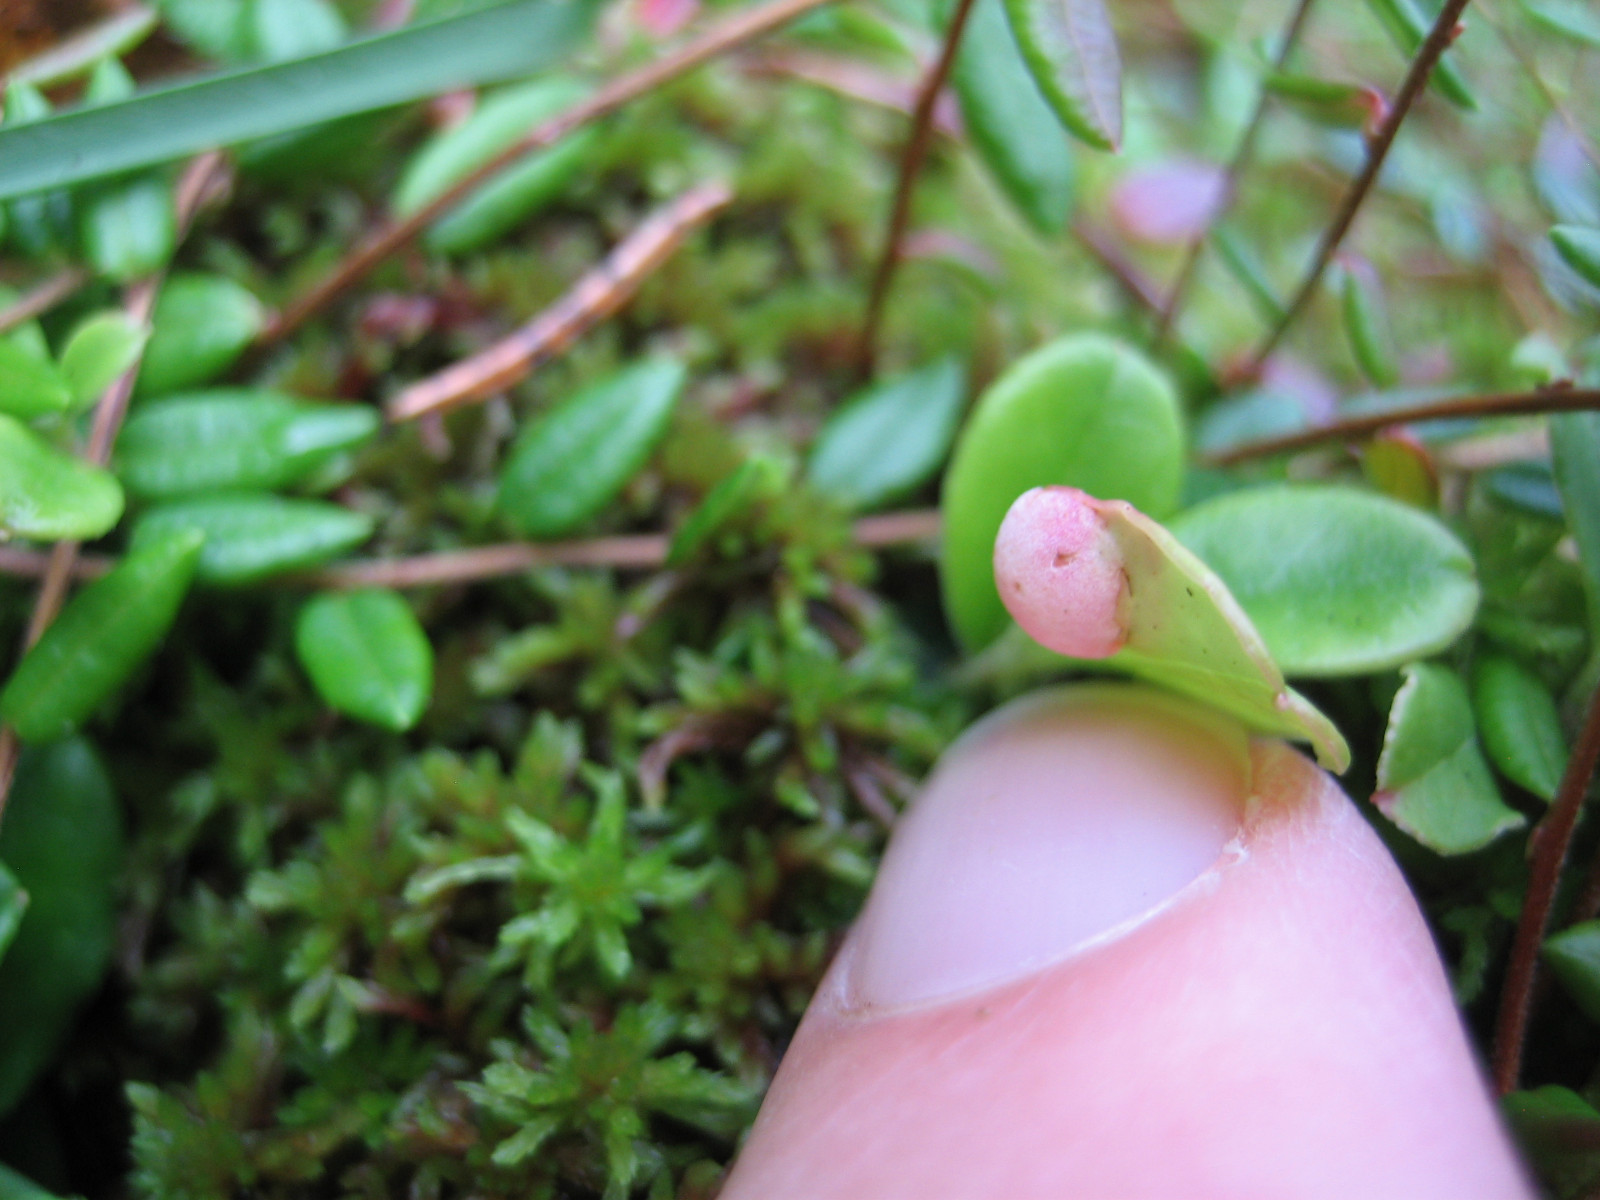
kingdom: Fungi
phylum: Basidiomycota
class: Exobasidiomycetes
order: Exobasidiales
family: Exobasidiaceae
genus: Exobasidium
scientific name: Exobasidium vaccinii
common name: tyttebærblad-bøllesvamp
